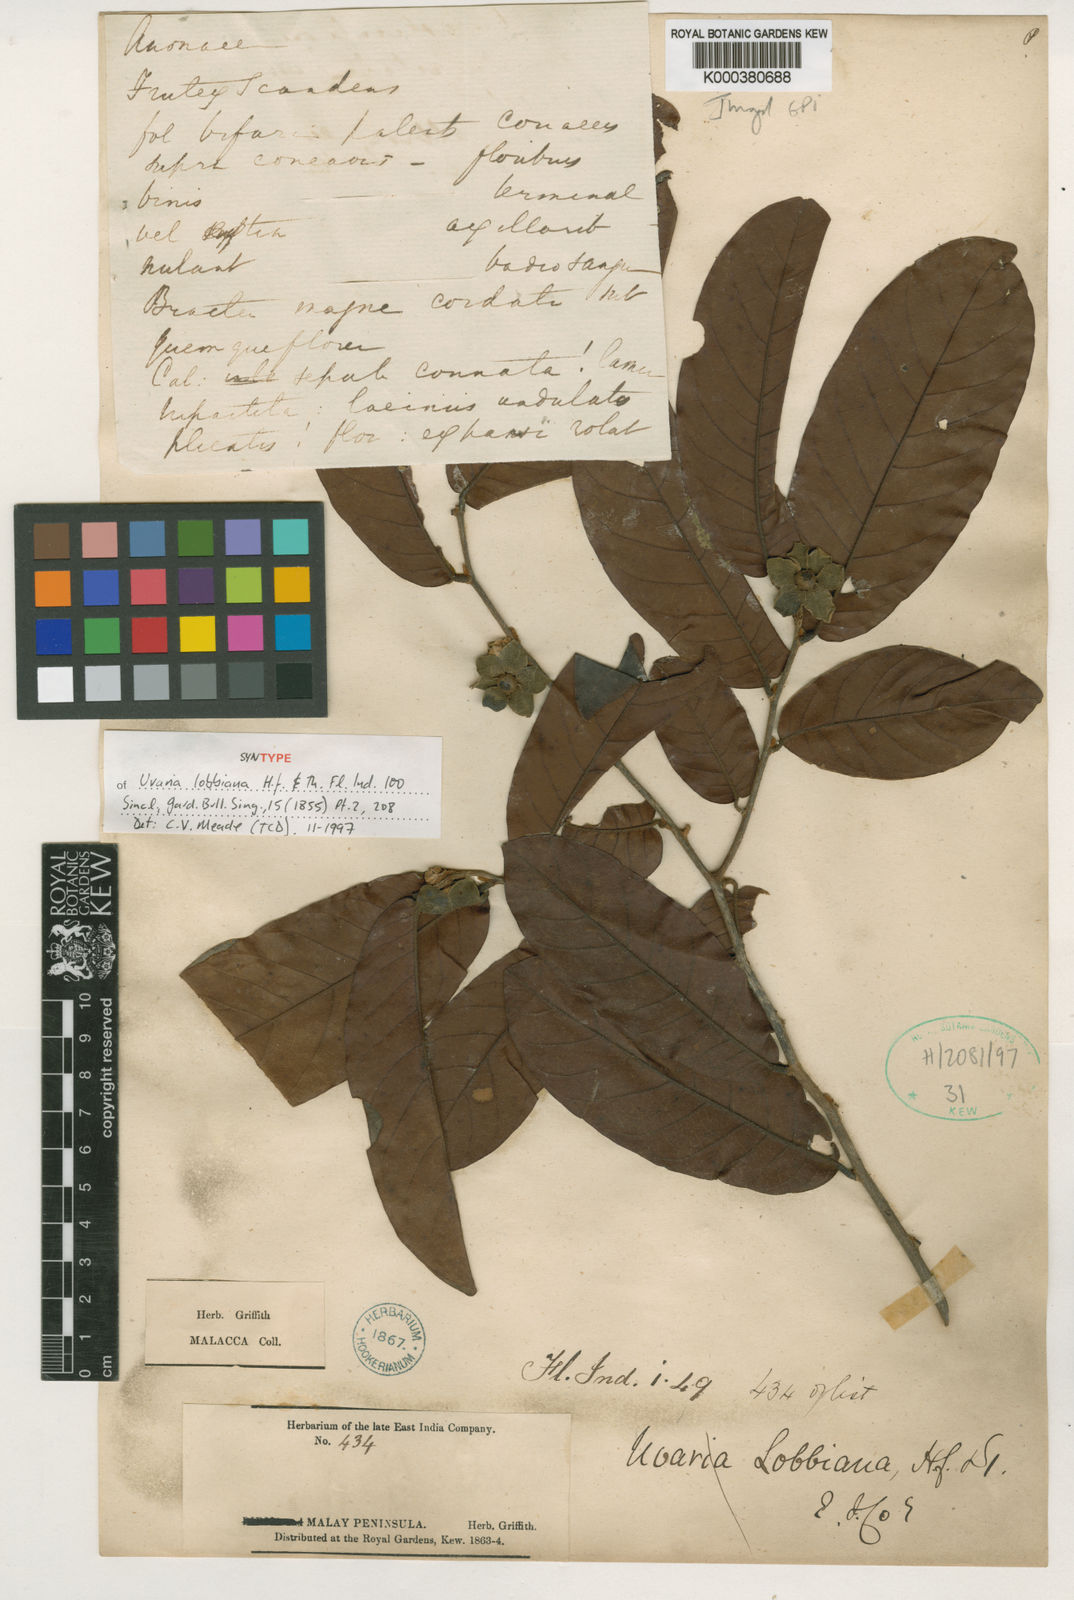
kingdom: Plantae
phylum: Tracheophyta
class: Magnoliopsida
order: Magnoliales
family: Annonaceae
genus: Uvaria
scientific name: Uvaria lobbiana
